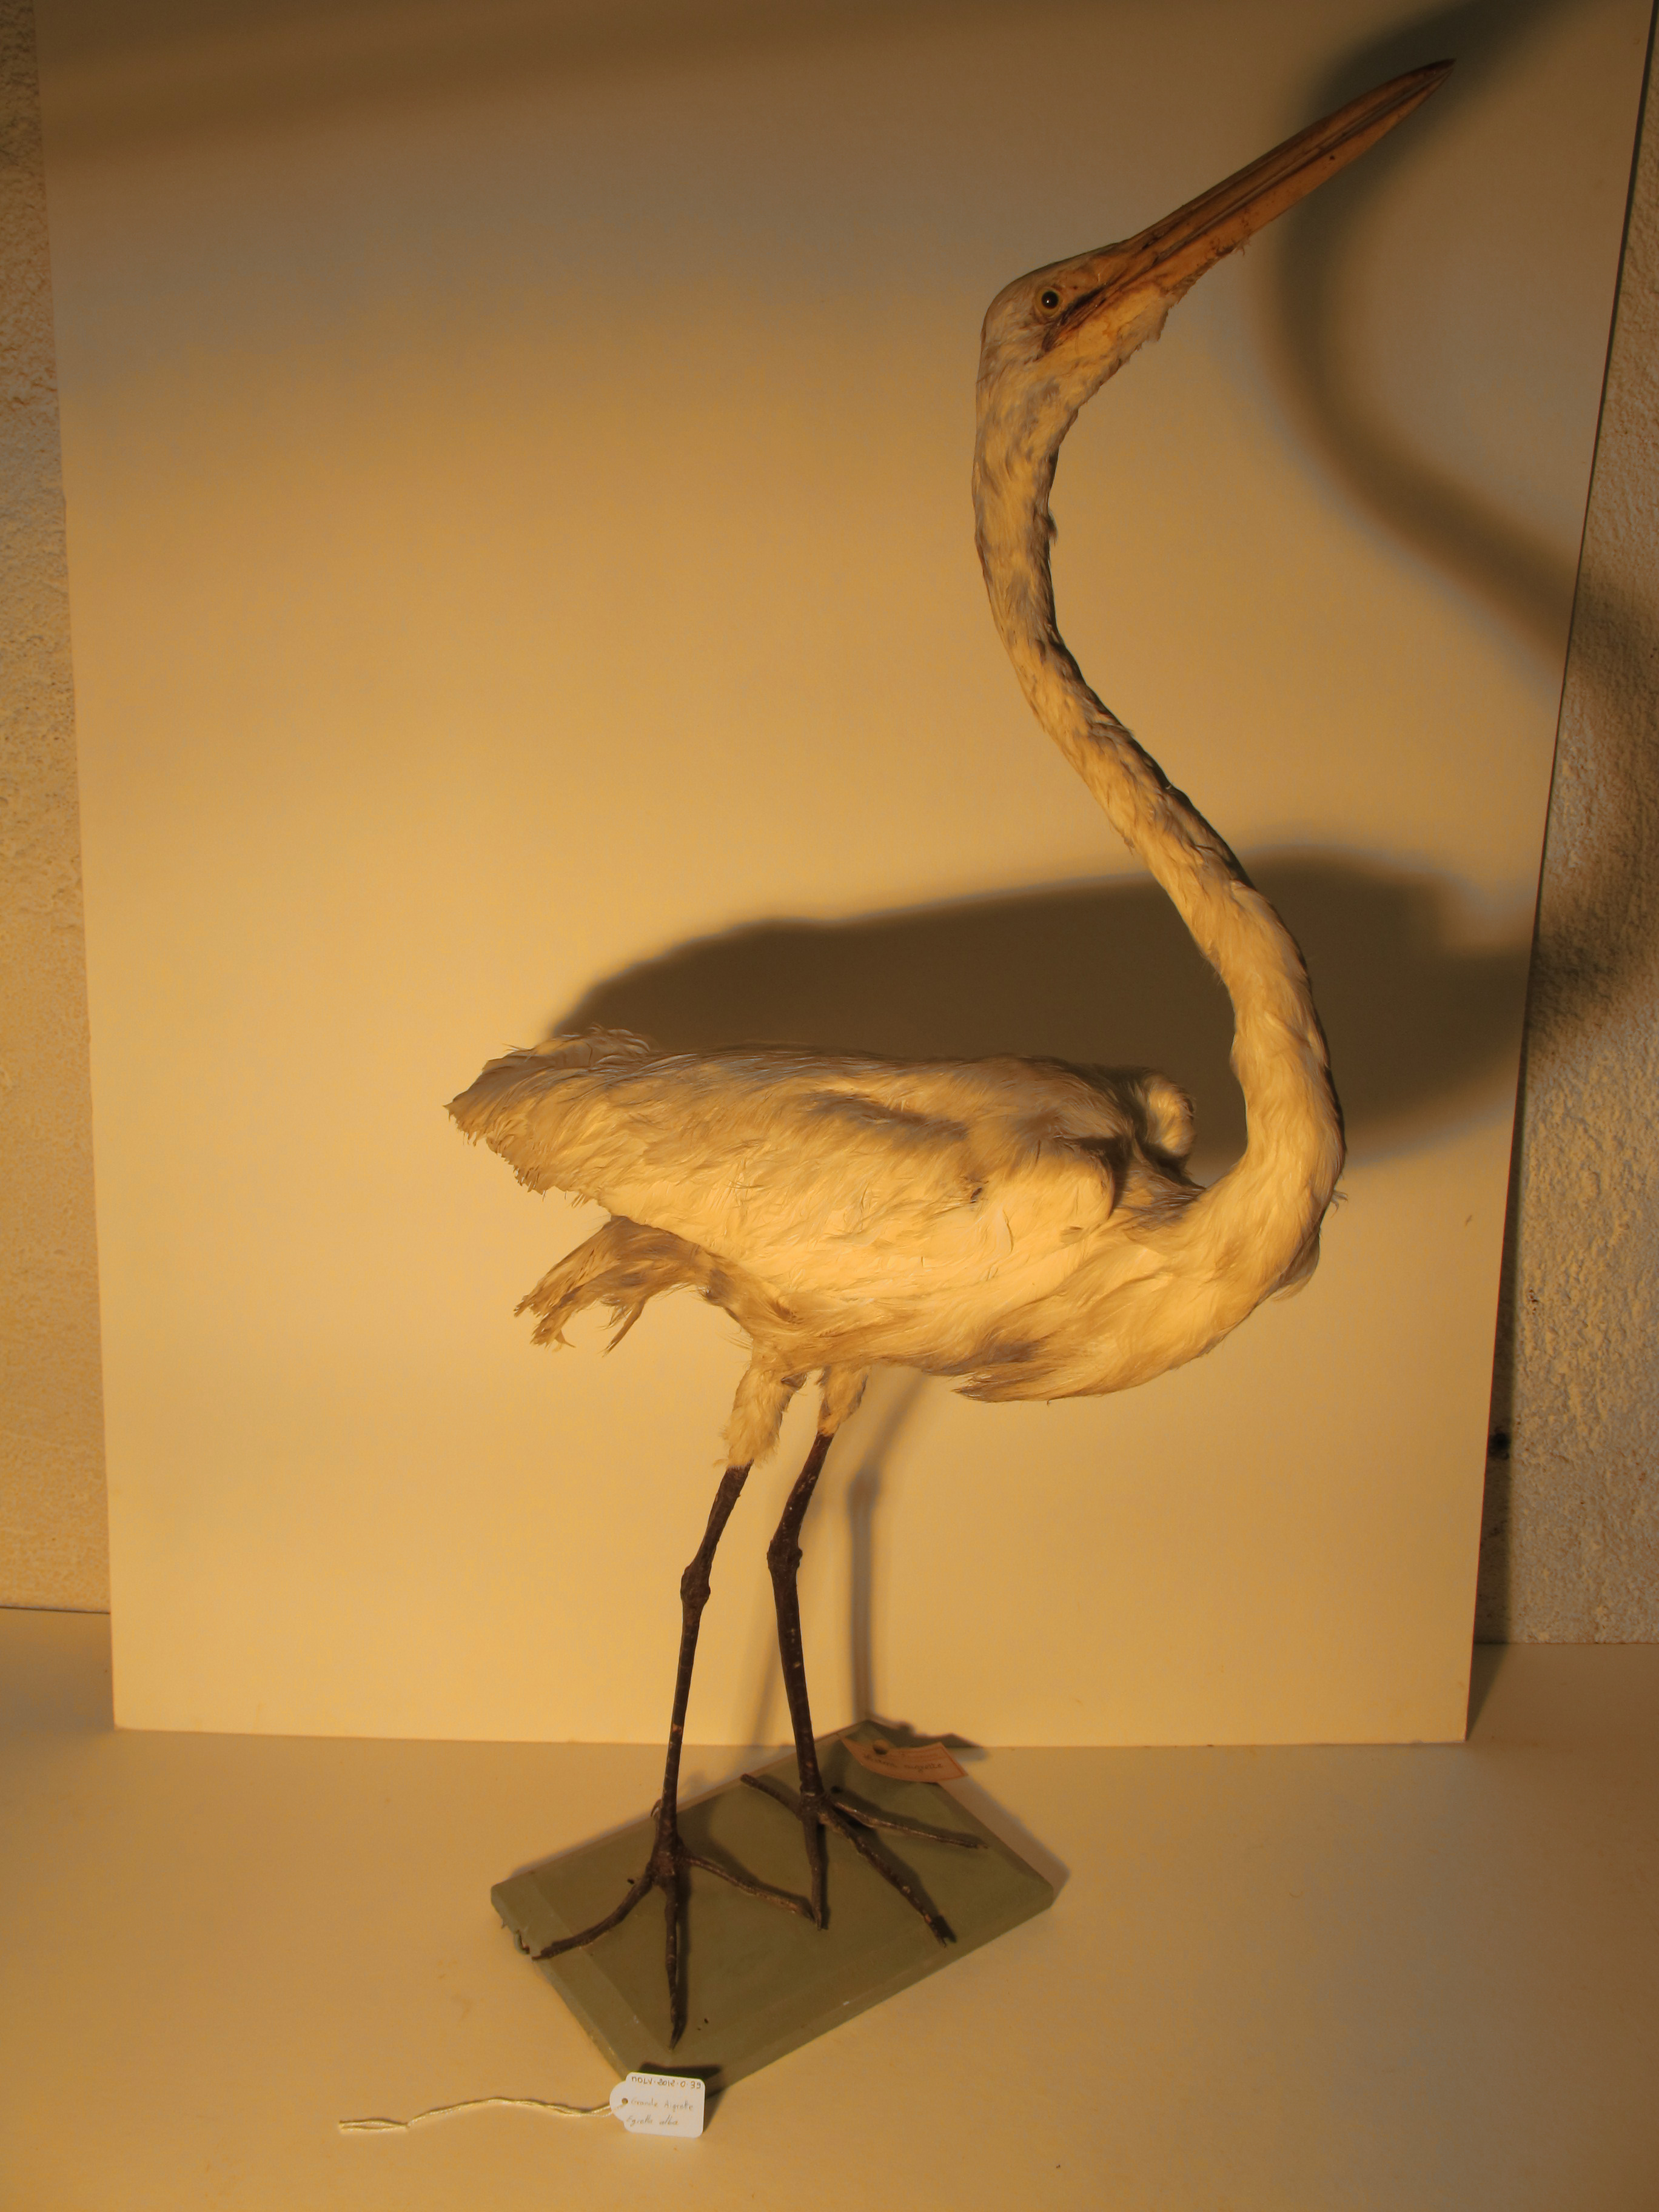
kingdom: Animalia
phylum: Chordata
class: Aves
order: Pelecaniformes
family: Ardeidae
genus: Ardea
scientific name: Ardea alba
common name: Great White Egret
